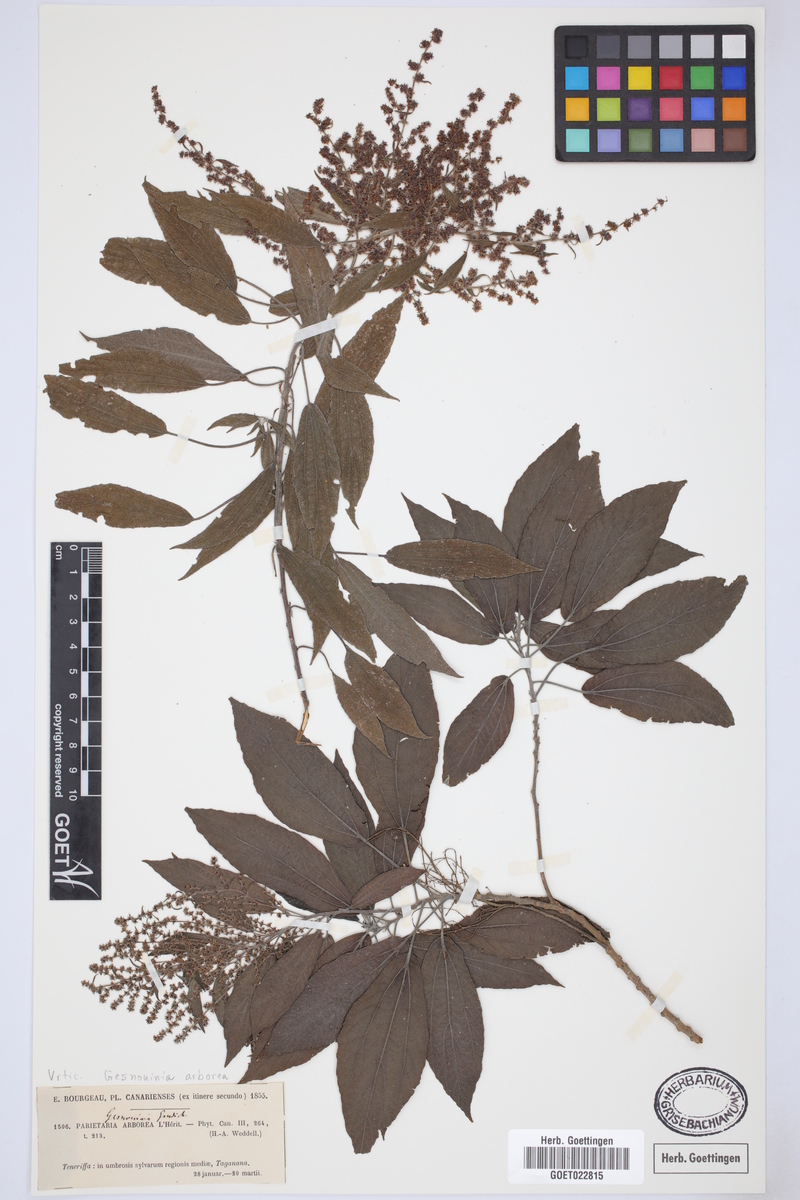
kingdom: Plantae
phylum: Tracheophyta
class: Magnoliopsida
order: Rosales
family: Urticaceae
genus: Gesnouinia
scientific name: Gesnouinia arborea
